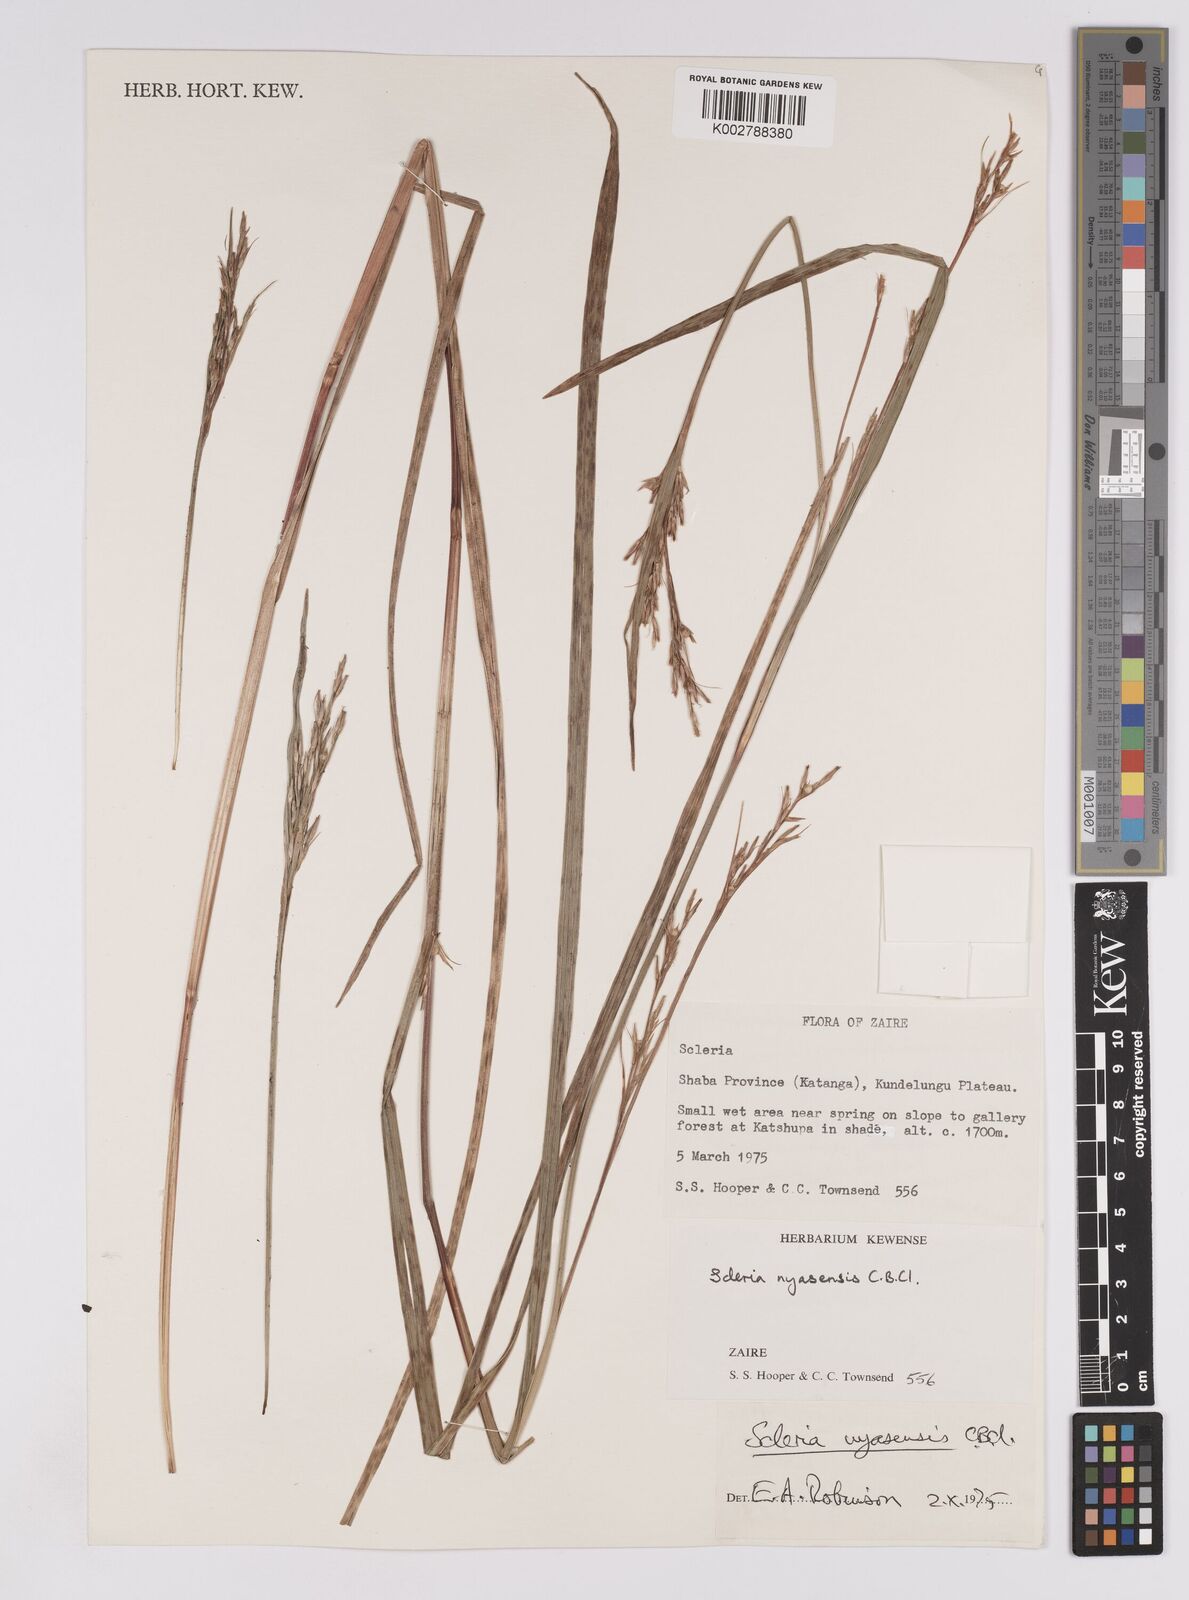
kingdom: Plantae
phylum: Tracheophyta
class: Liliopsida
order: Poales
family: Cyperaceae
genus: Scleria
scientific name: Scleria nyasensis
